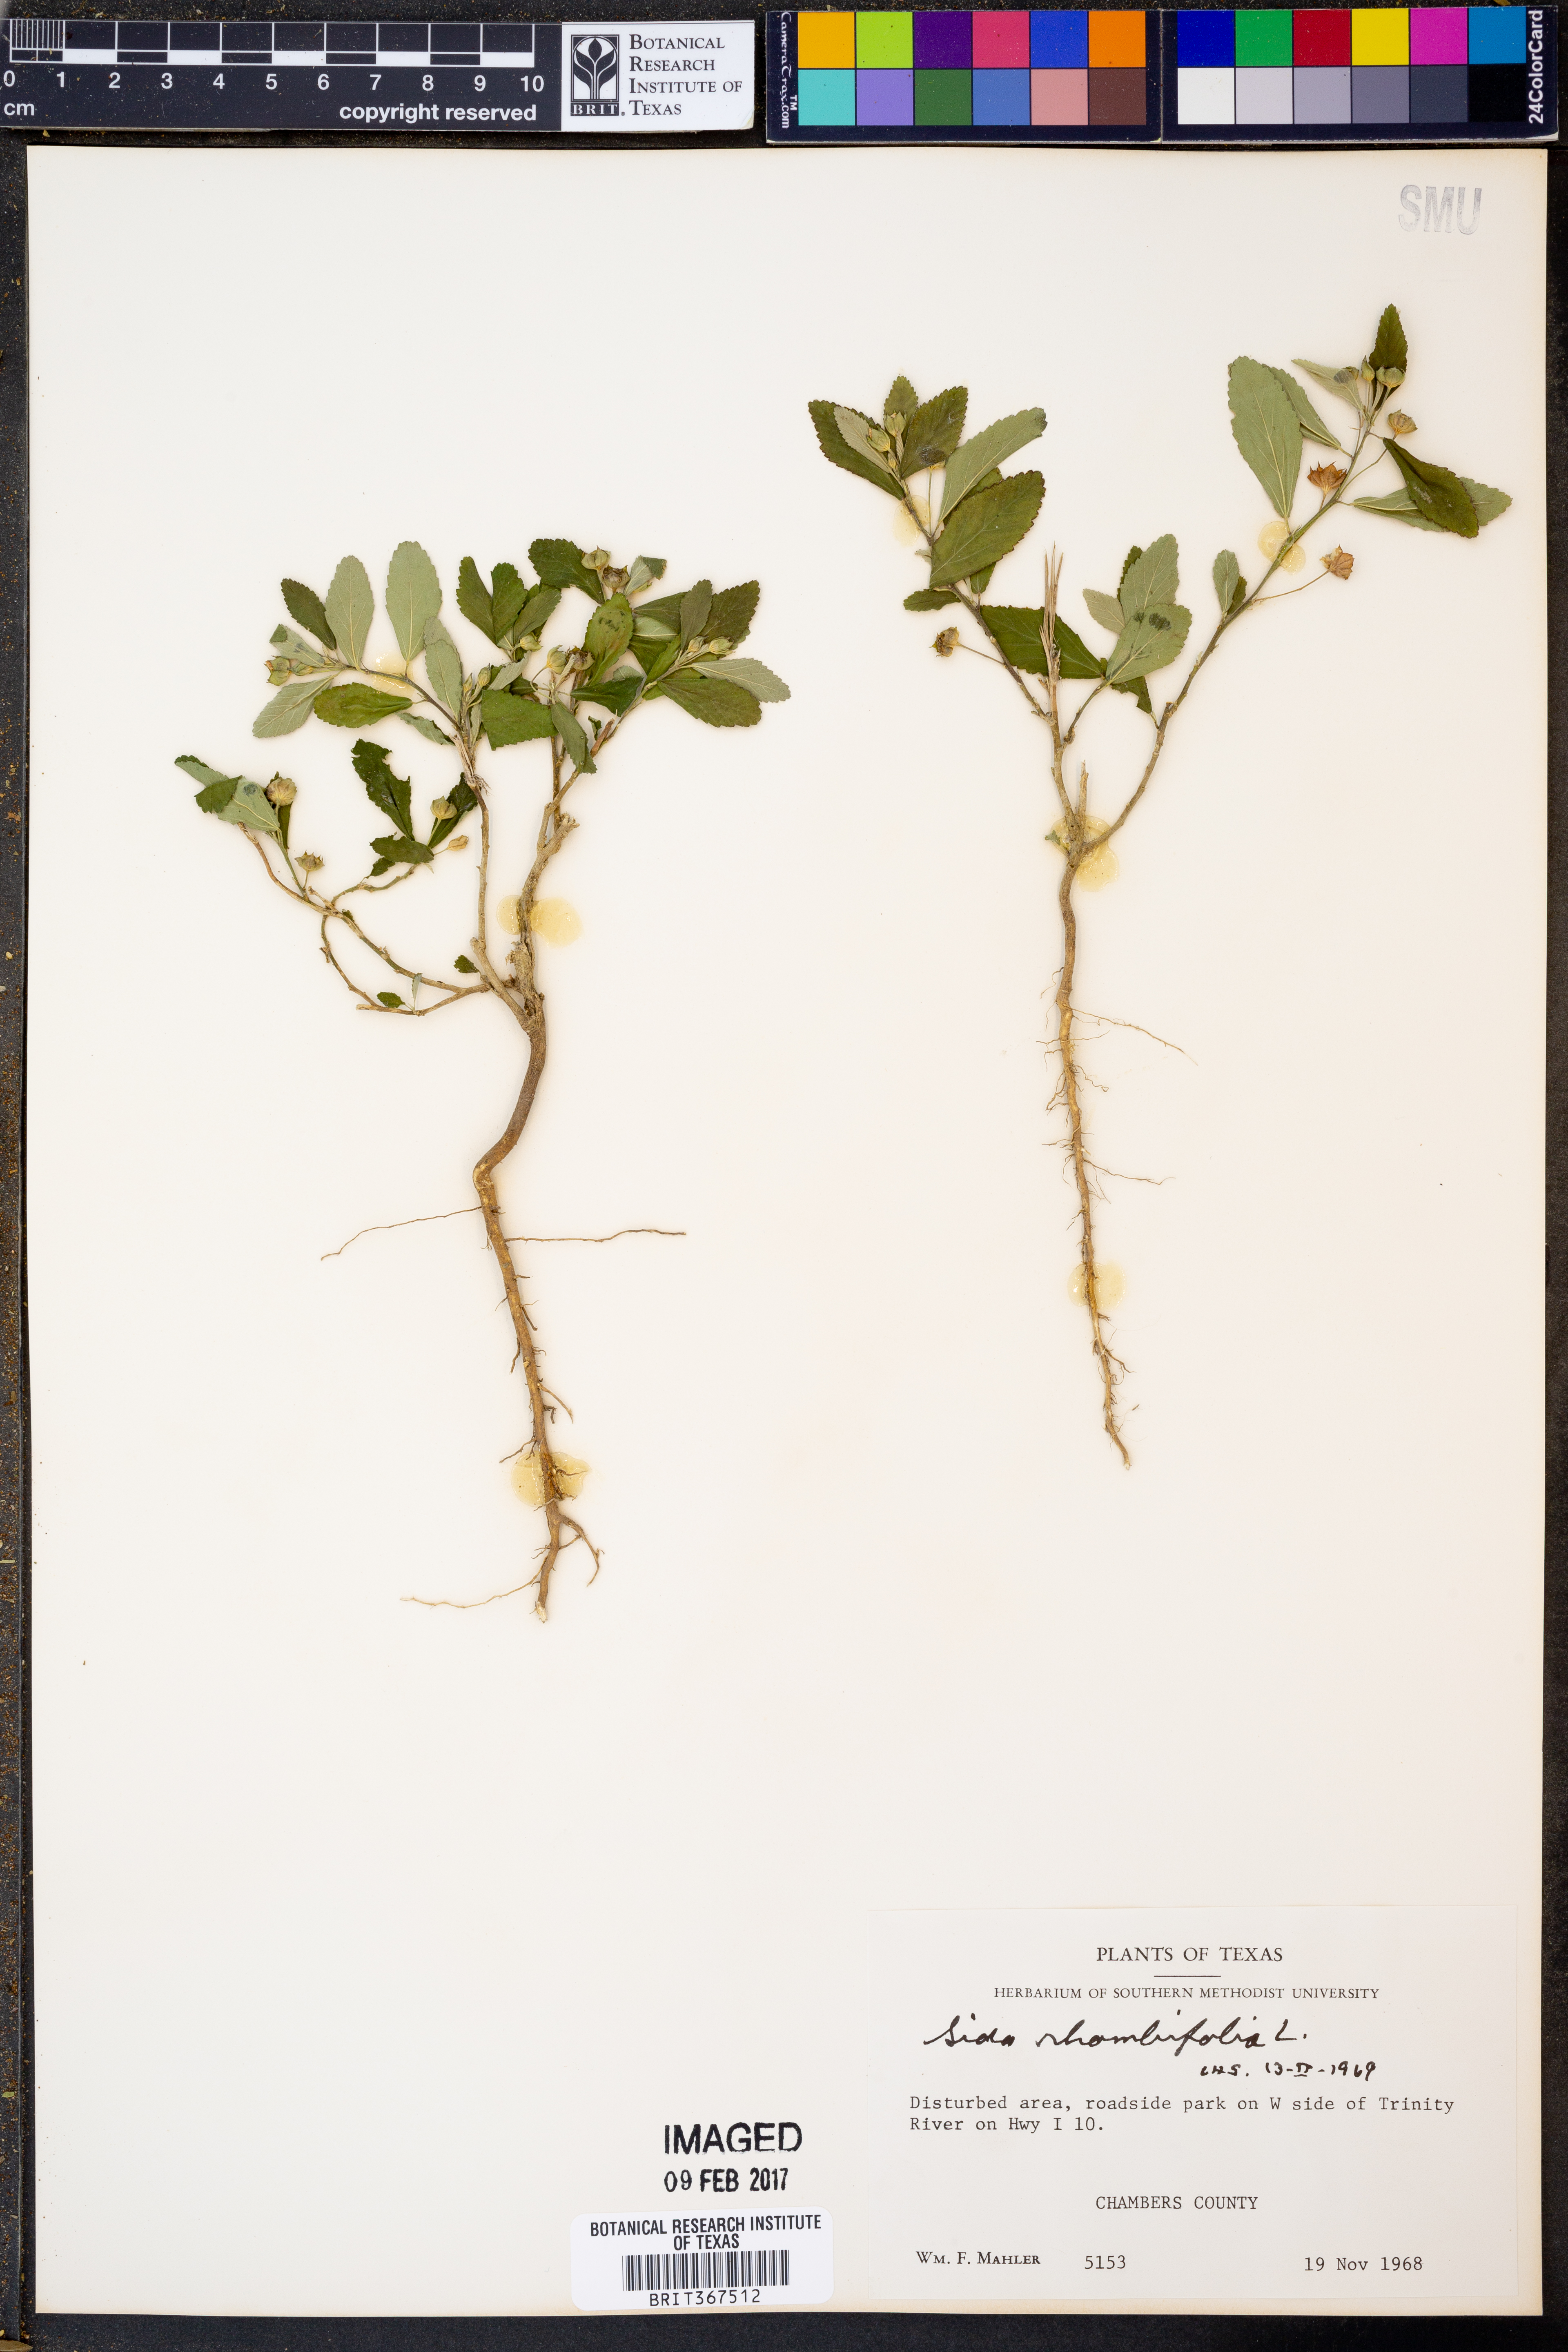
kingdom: Plantae
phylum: Tracheophyta
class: Magnoliopsida
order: Malvales
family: Malvaceae
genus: Sida
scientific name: Sida rhombifolia
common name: Queensland-hemp
